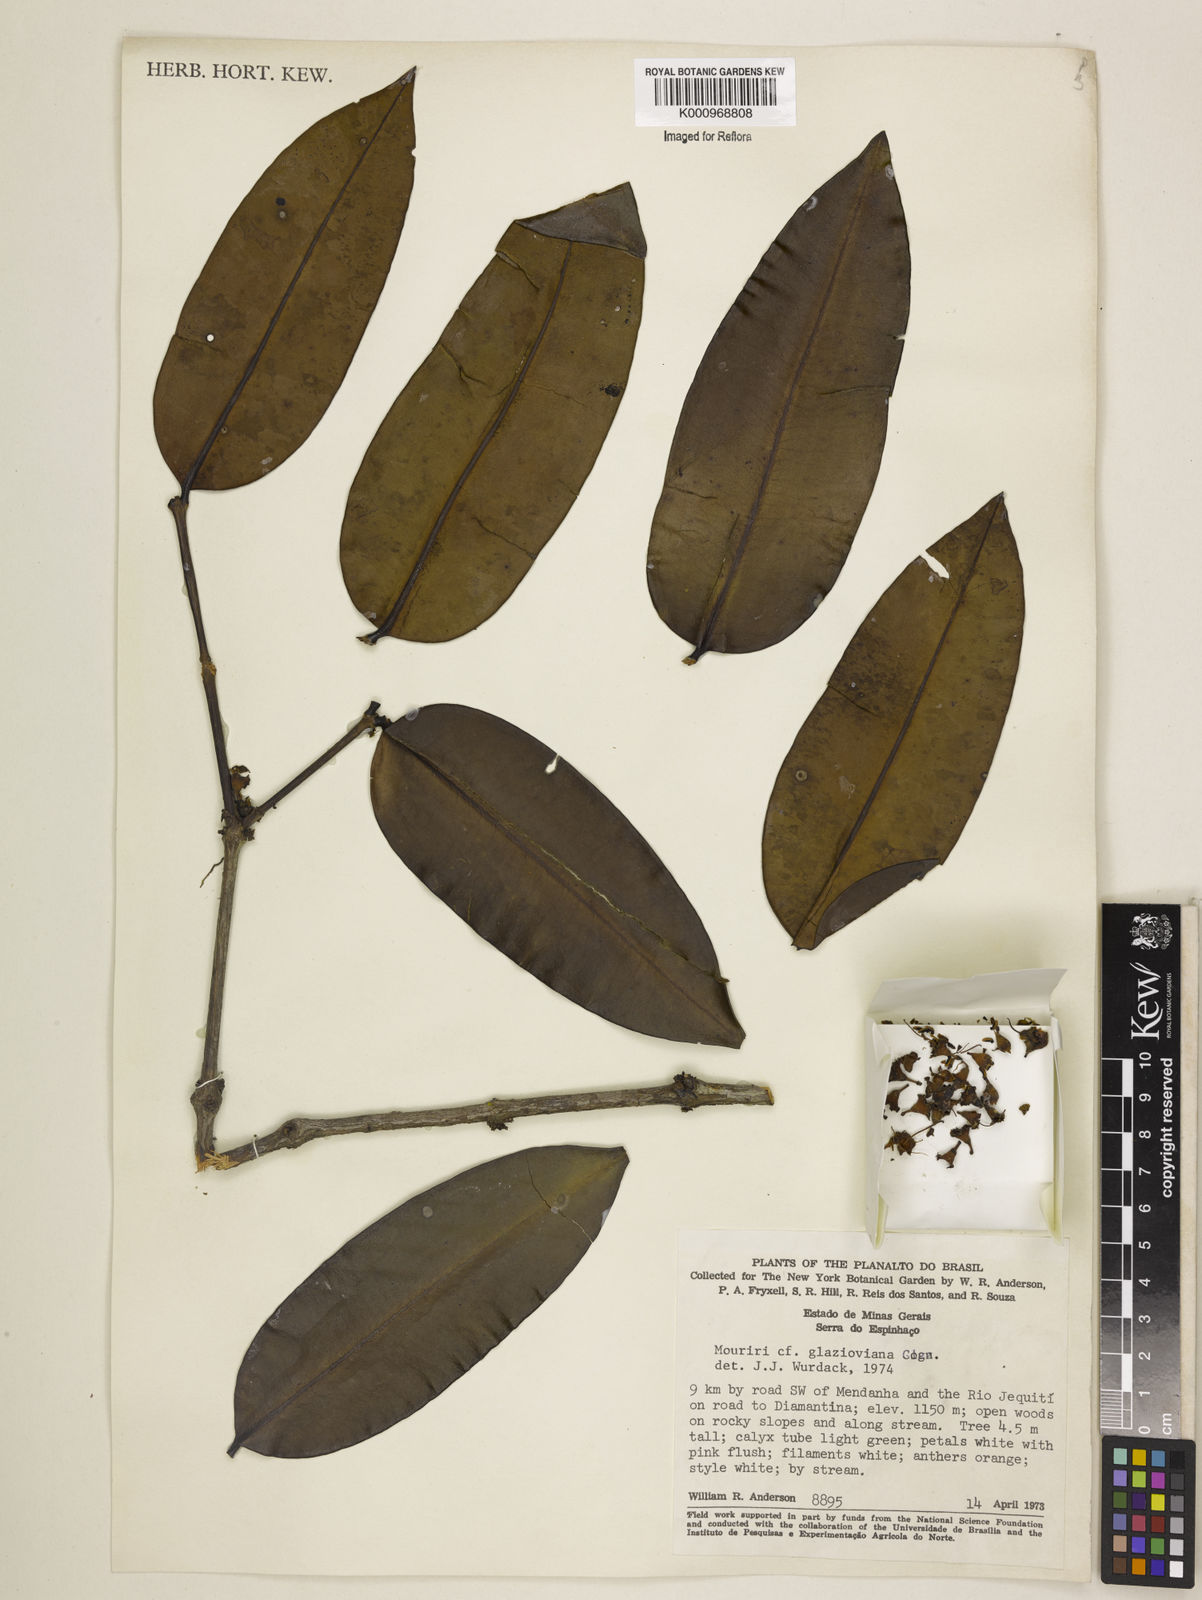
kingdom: Plantae
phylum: Tracheophyta
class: Magnoliopsida
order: Myrtales
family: Melastomataceae
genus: Mouriri
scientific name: Mouriri glazioviana
